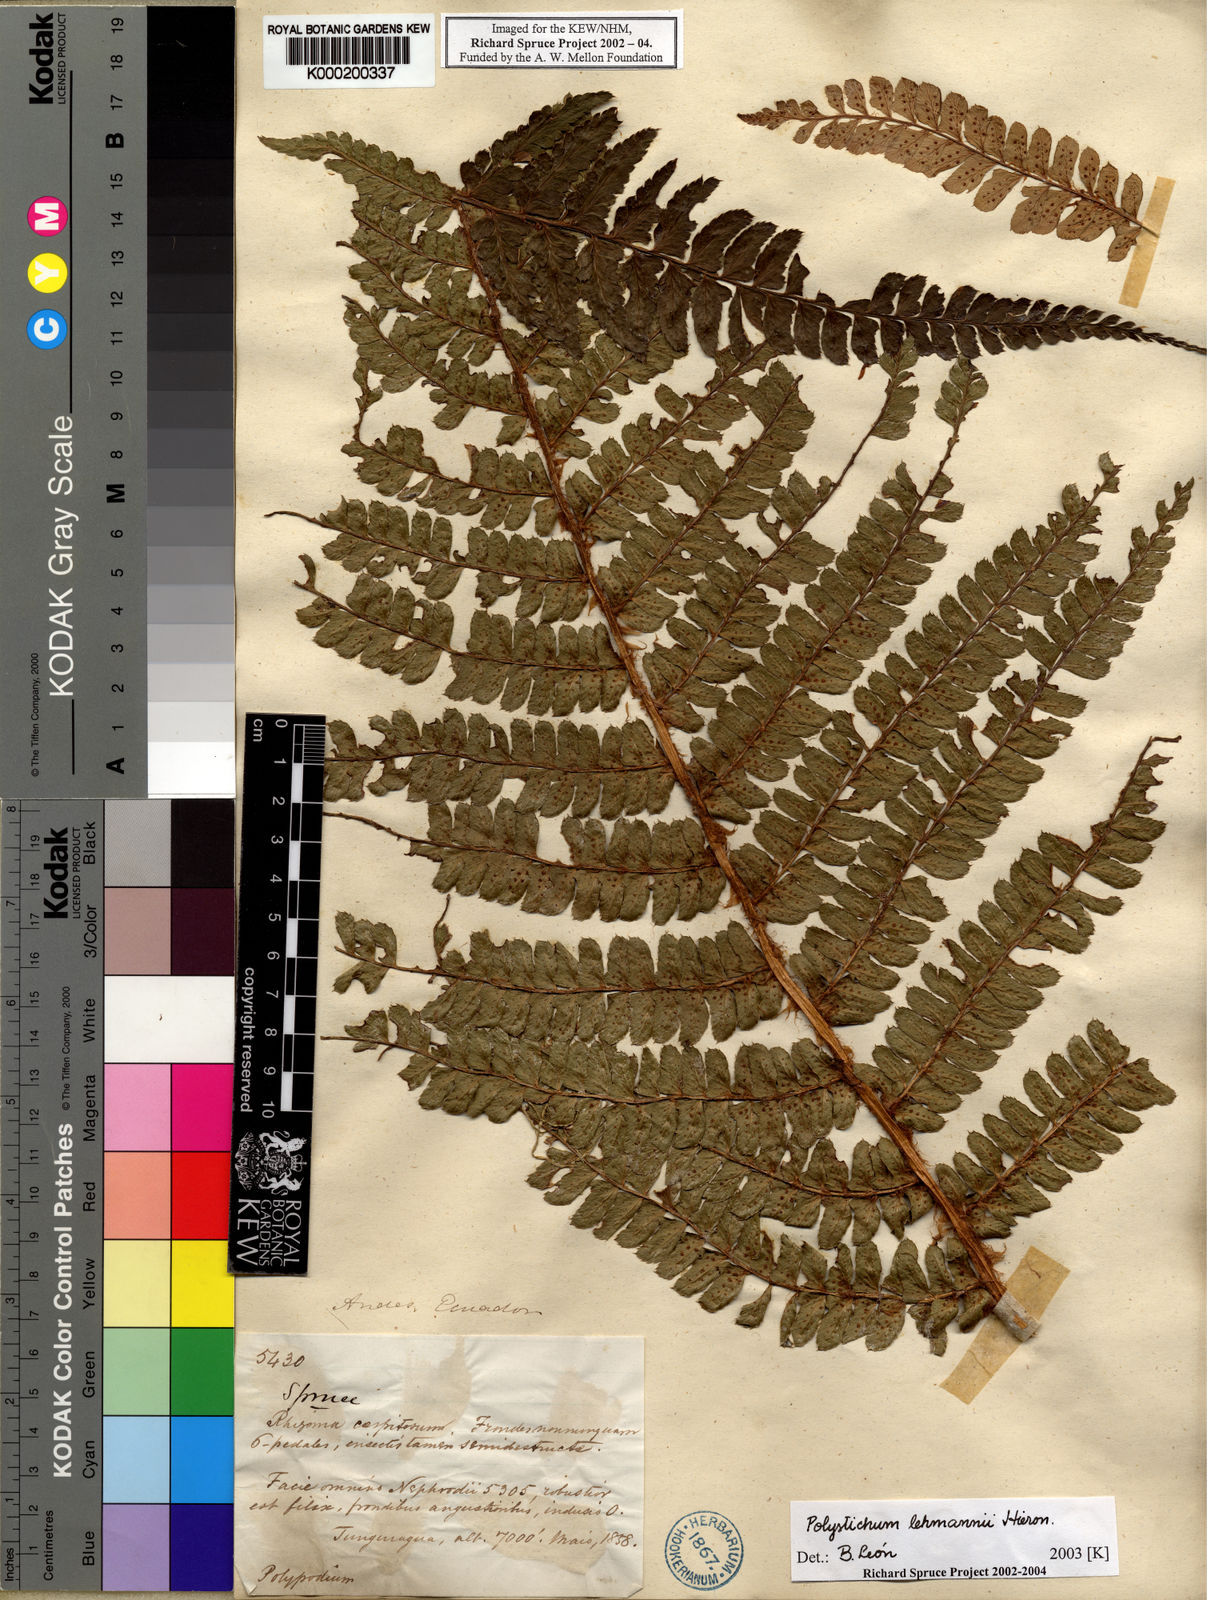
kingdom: Plantae
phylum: Tracheophyta
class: Polypodiopsida
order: Polypodiales
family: Dryopteridaceae
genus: Polystichum
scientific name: Polystichum lehmannii
